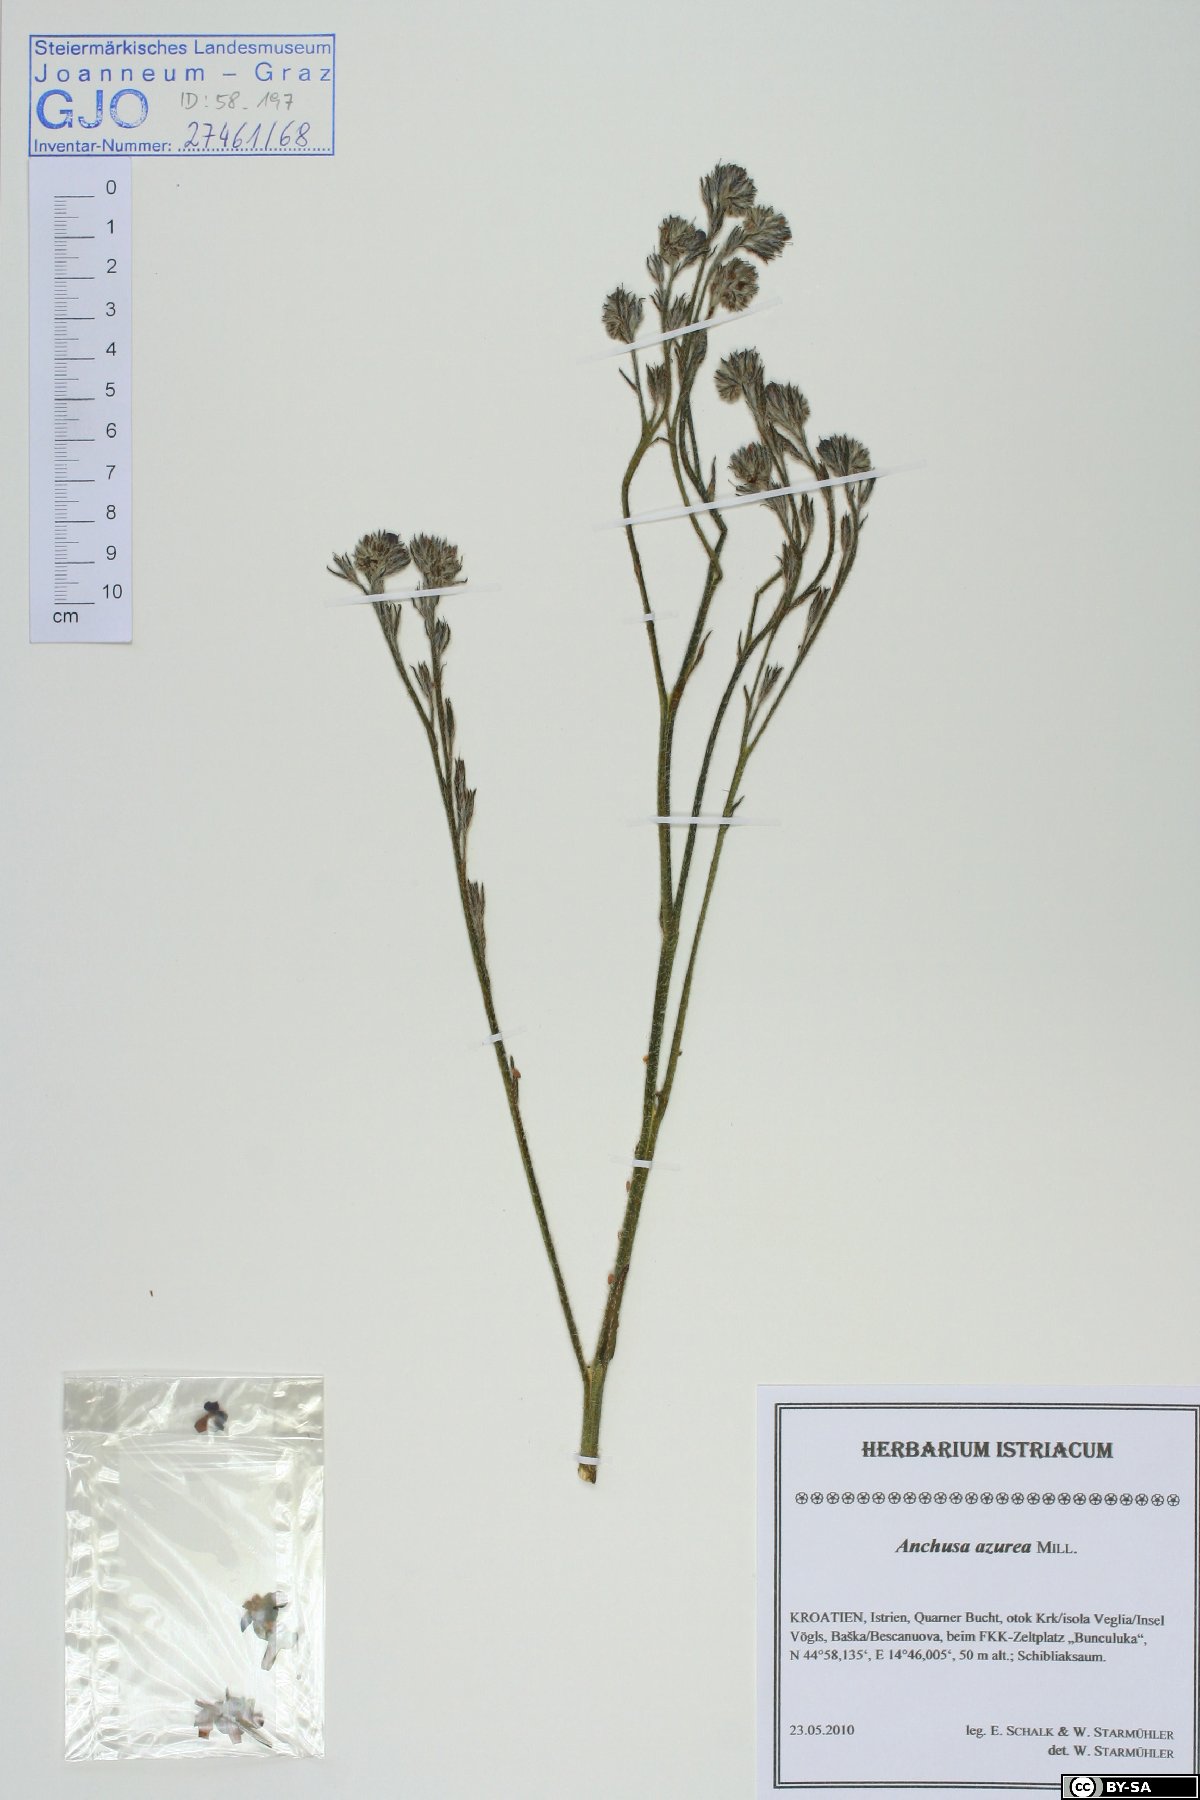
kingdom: Plantae
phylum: Tracheophyta
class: Magnoliopsida
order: Boraginales
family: Boraginaceae
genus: Anchusa
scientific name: Anchusa azurea
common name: Garden anchusa
